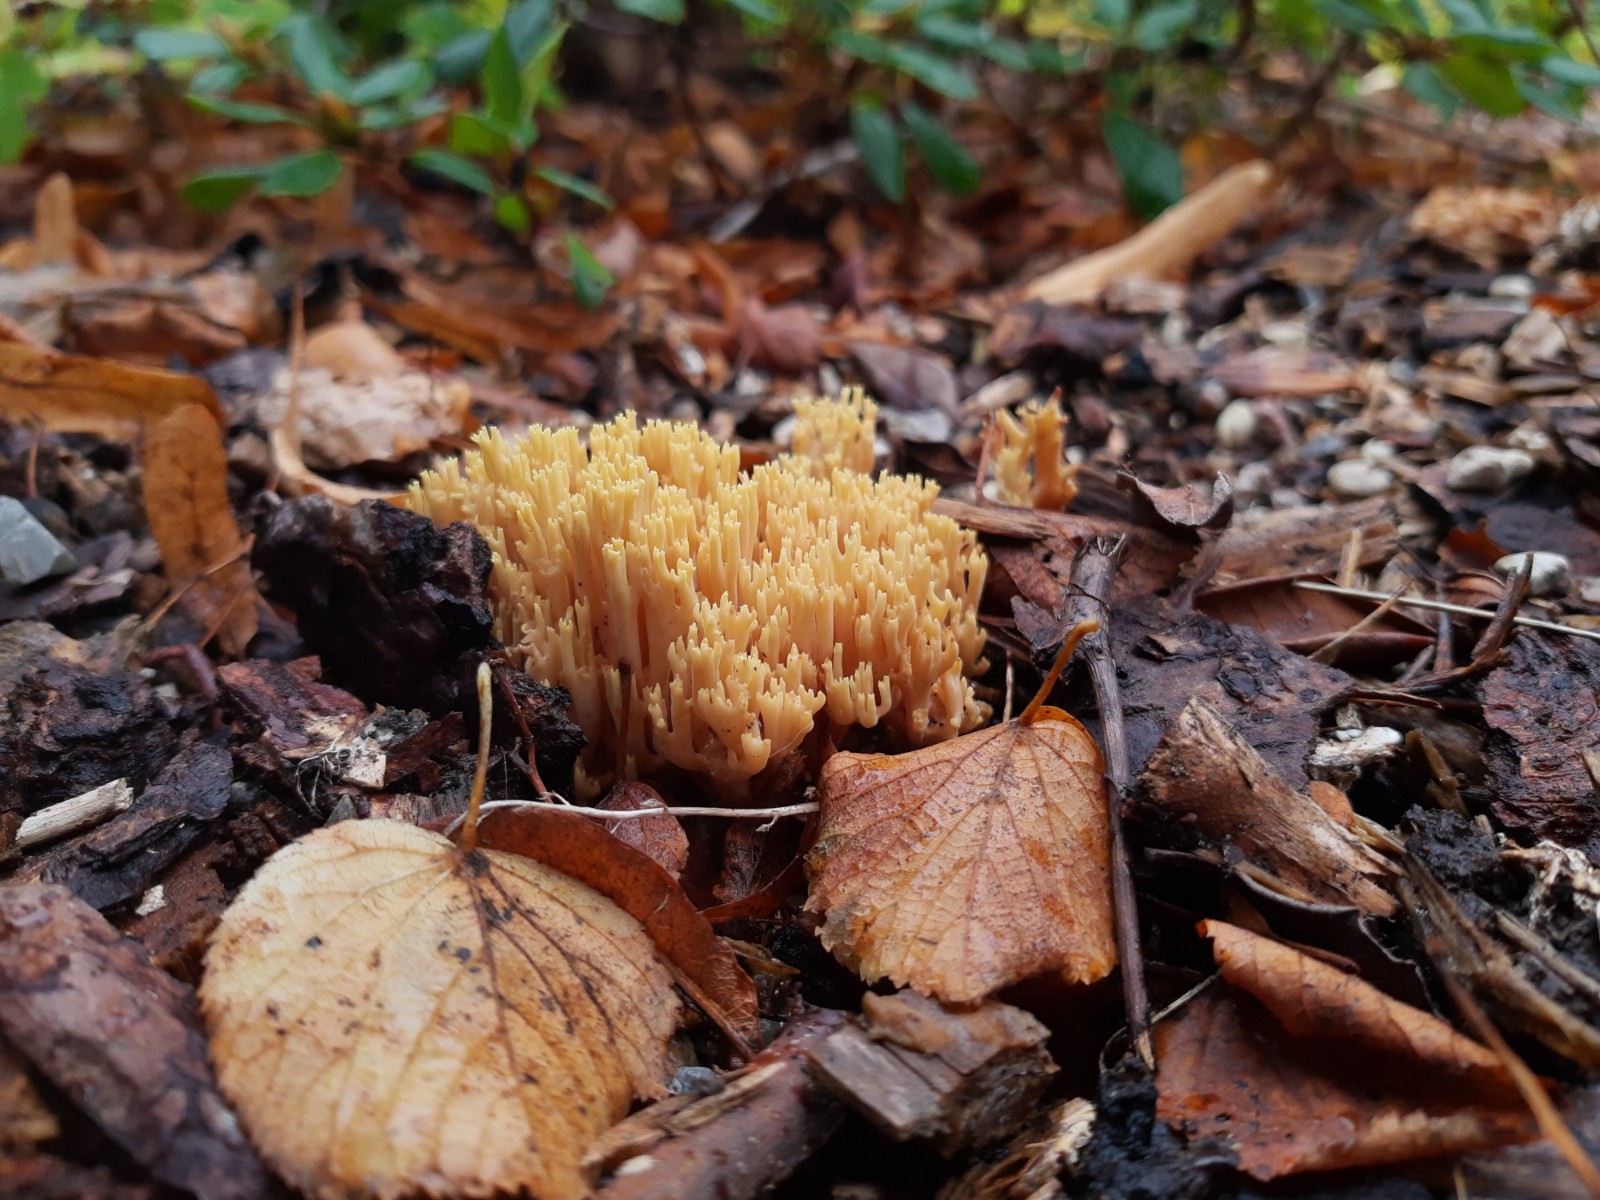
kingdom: Fungi
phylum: Basidiomycota
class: Agaricomycetes
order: Gomphales
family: Gomphaceae
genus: Ramaria
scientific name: Ramaria stricta
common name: rank koralsvamp
